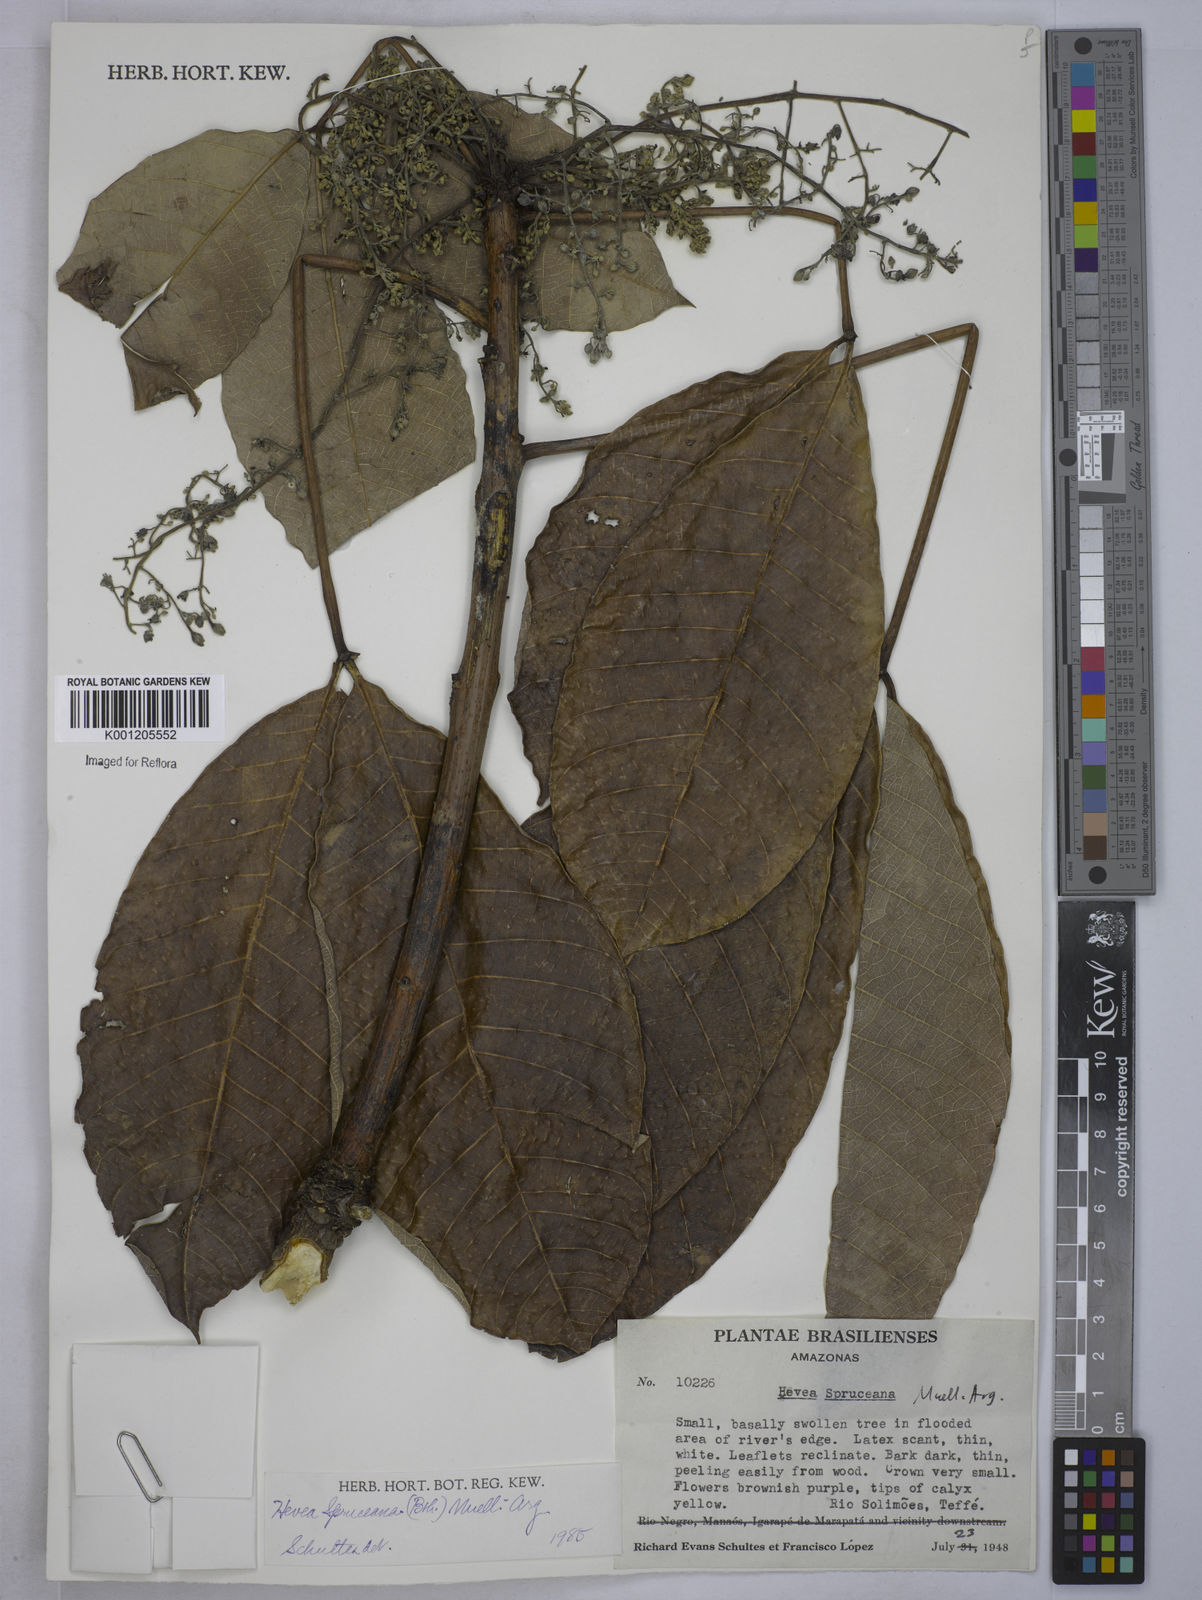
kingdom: Plantae
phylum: Tracheophyta
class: Magnoliopsida
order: Malpighiales
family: Euphorbiaceae
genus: Hevea
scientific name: Hevea
